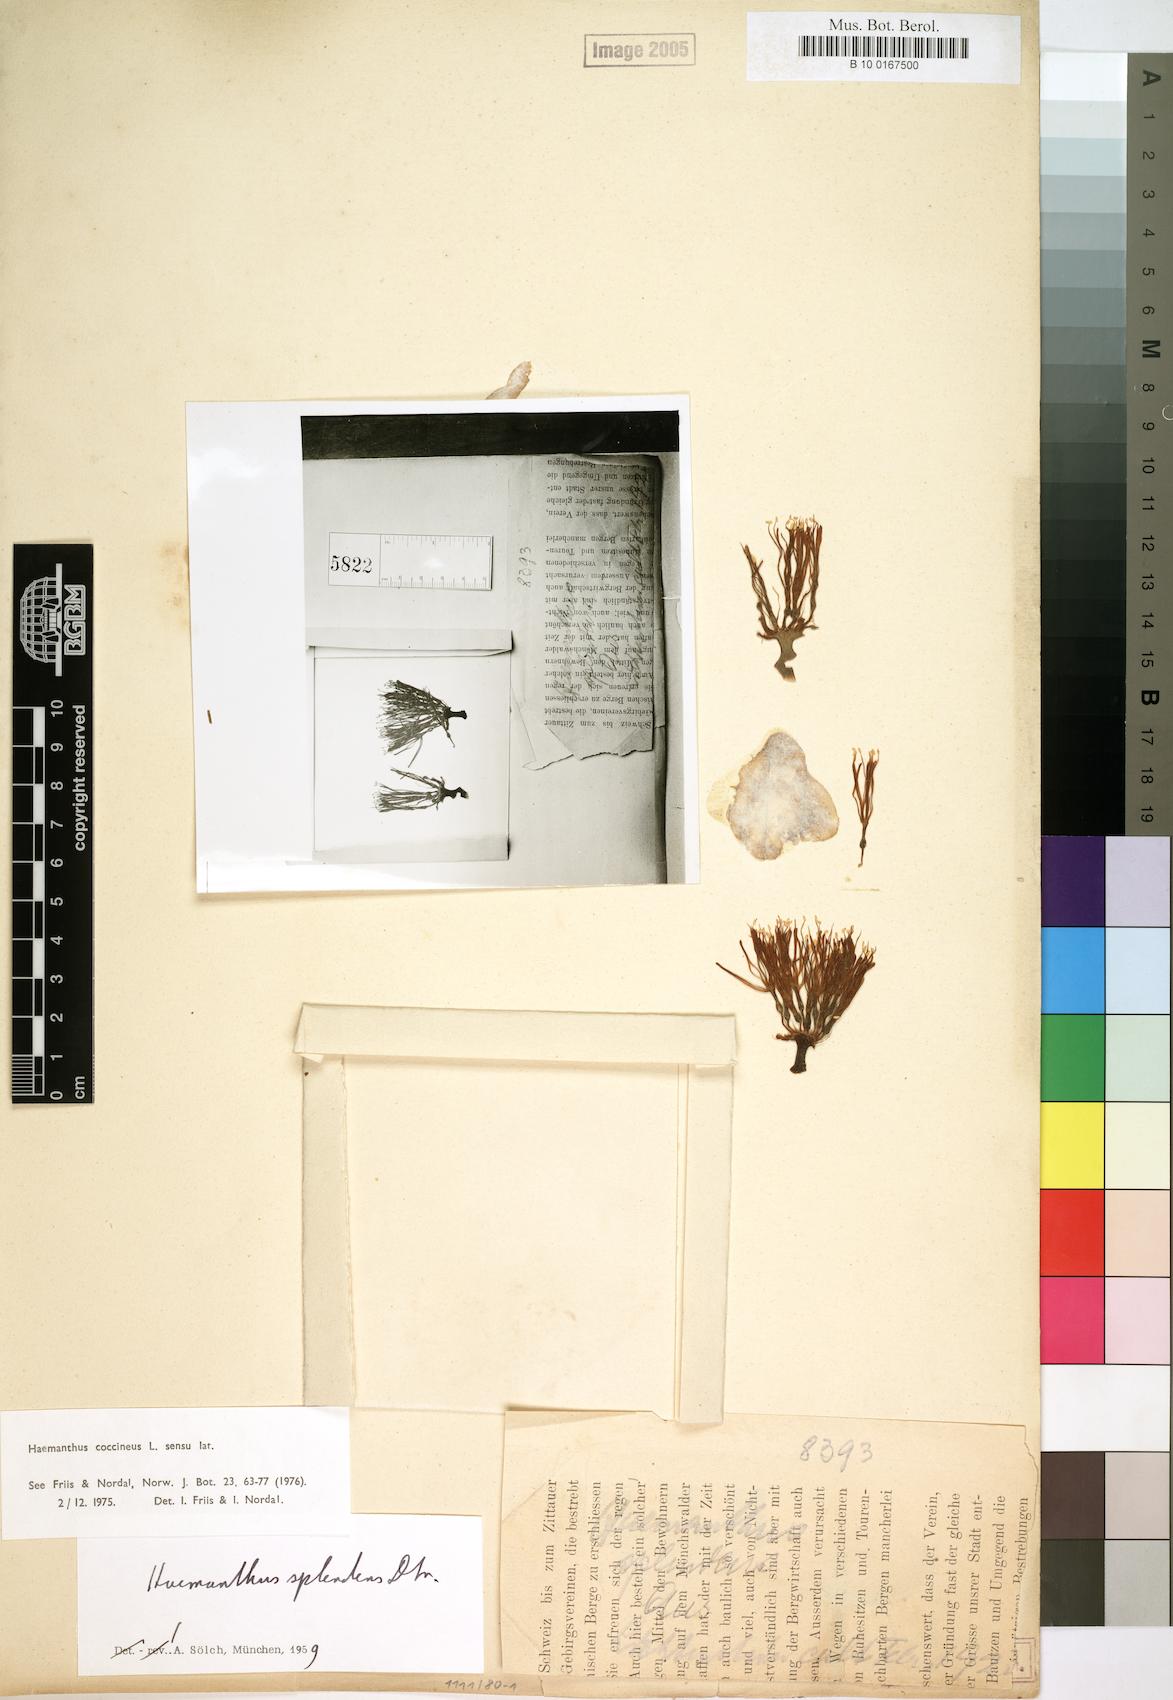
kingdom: Plantae
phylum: Tracheophyta
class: Liliopsida
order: Asparagales
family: Amaryllidaceae
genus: Haemanthus
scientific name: Haemanthus coccineus
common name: Cape-tulip
